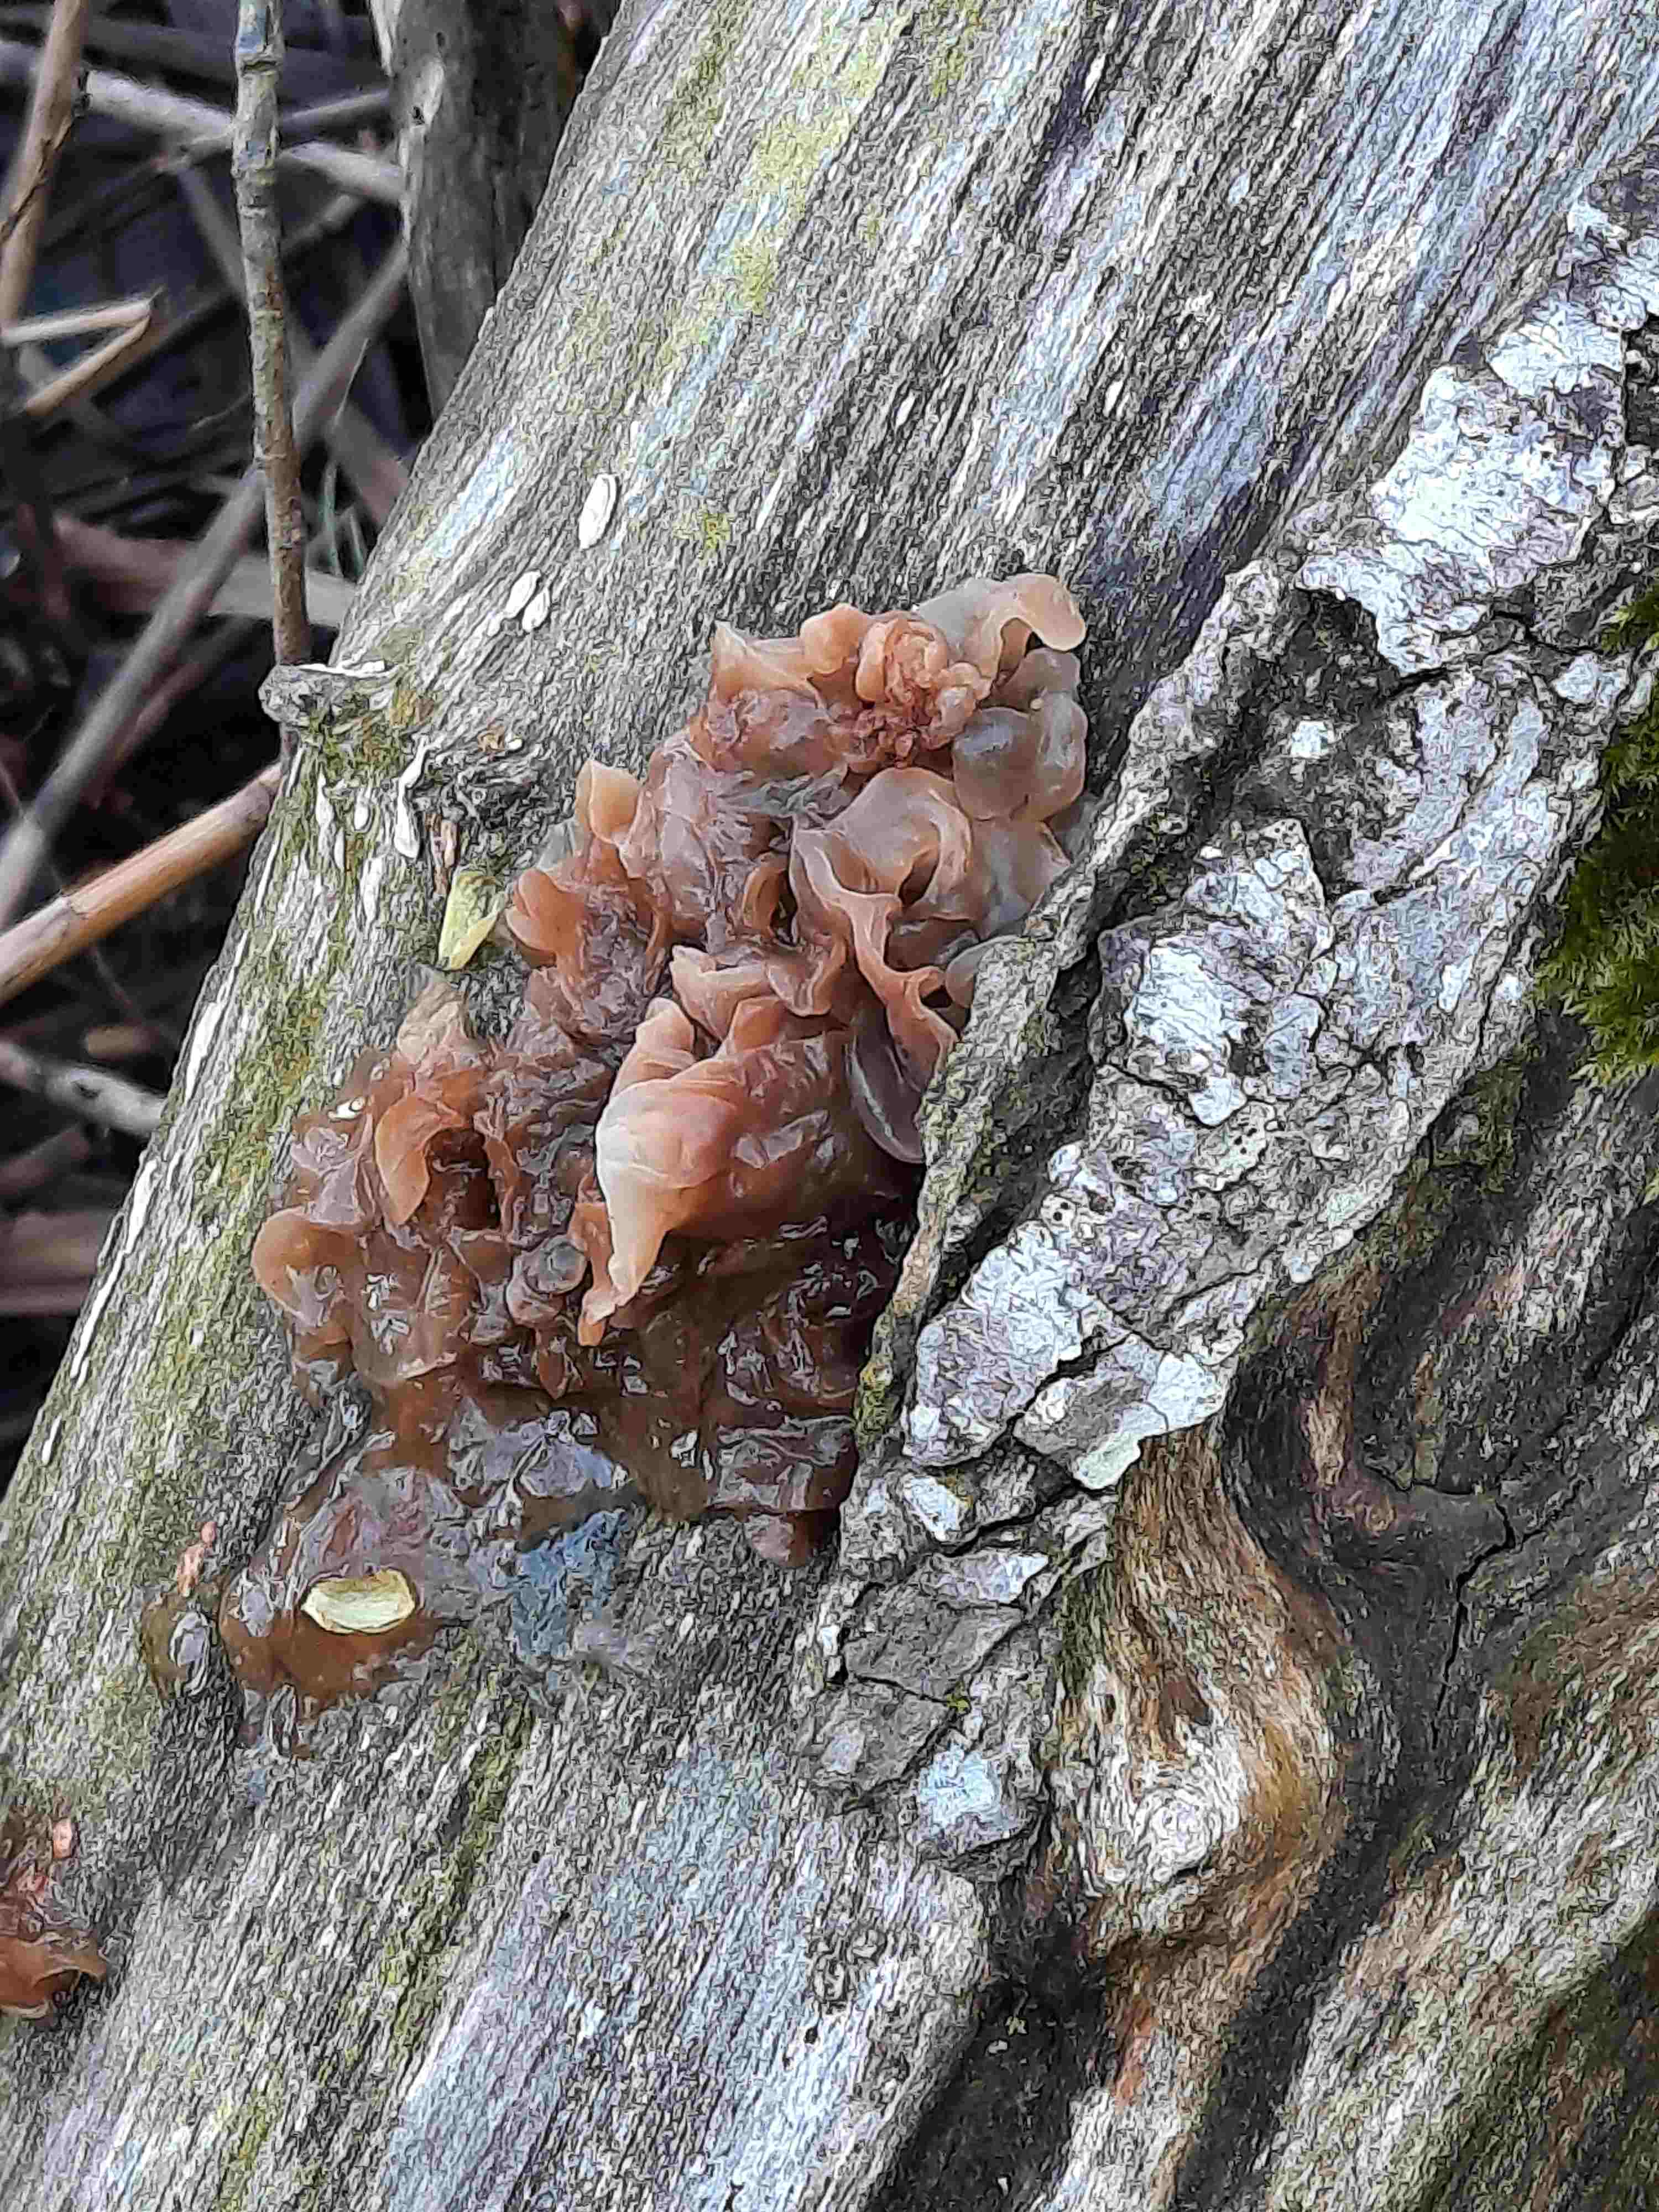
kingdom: Fungi
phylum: Basidiomycota
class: Tremellomycetes
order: Tremellales
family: Tremellaceae
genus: Phaeotremella
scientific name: Phaeotremella foliacea
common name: brun bævresvamp
